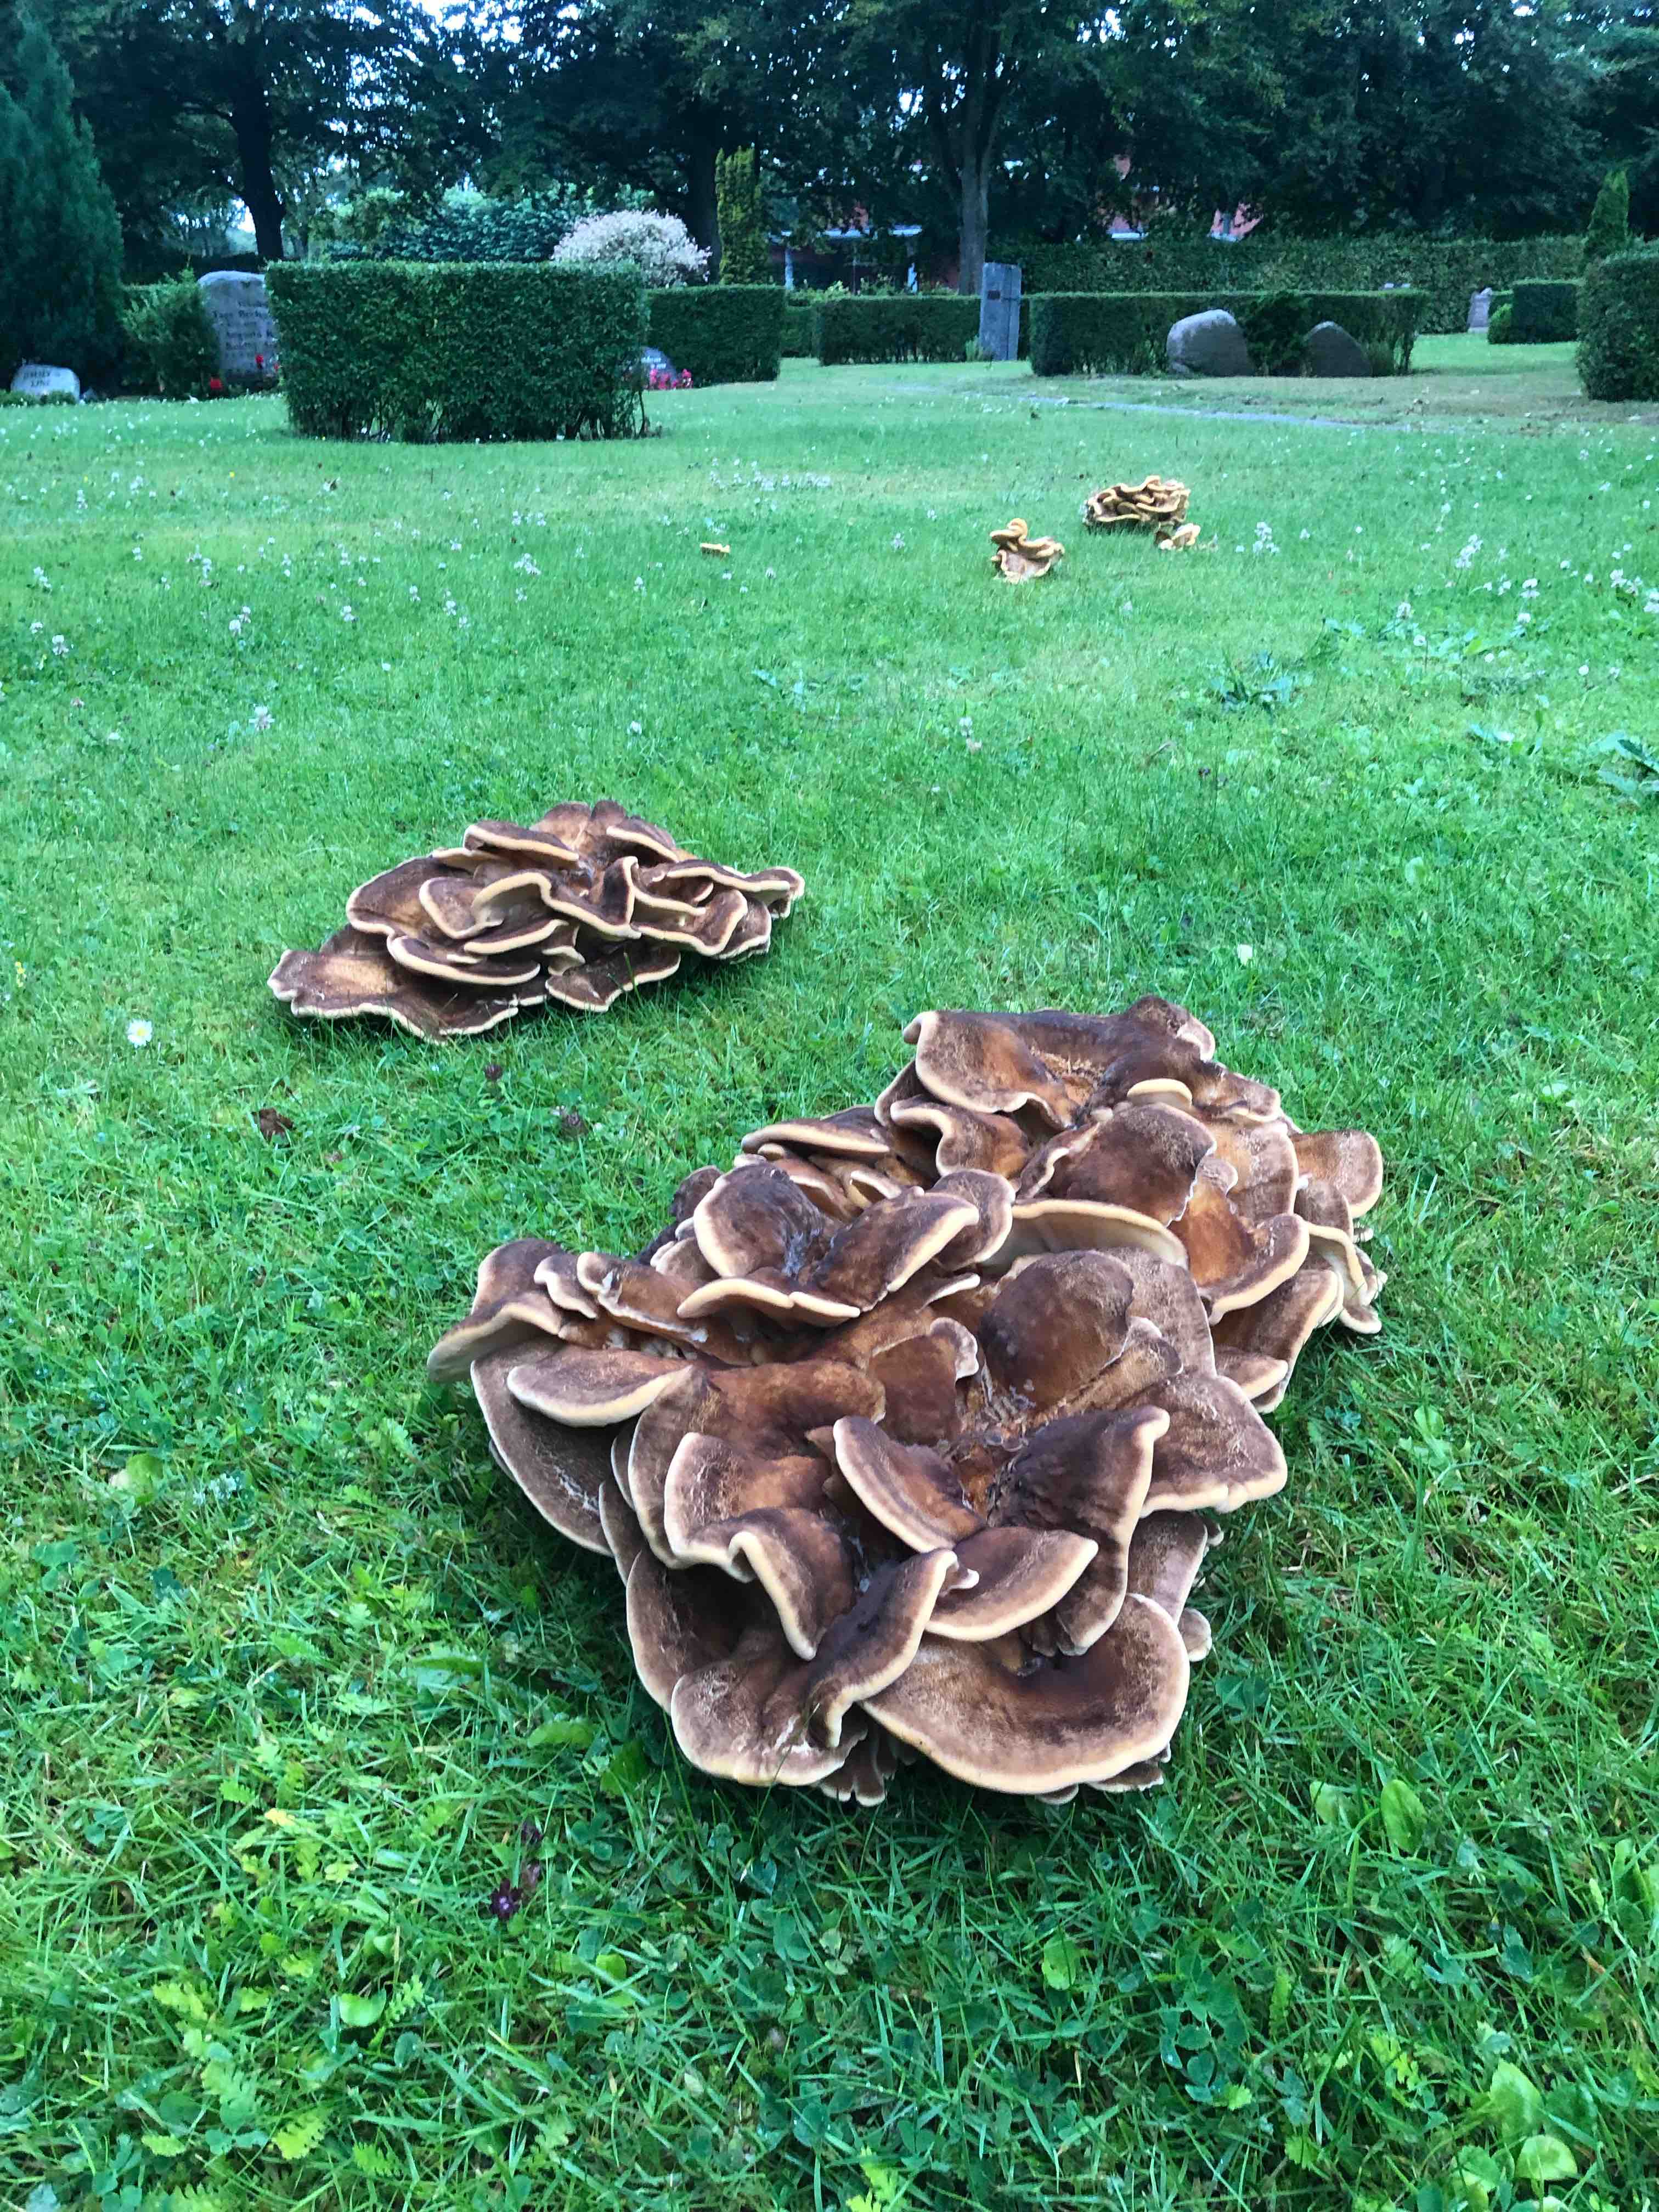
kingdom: Fungi
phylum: Basidiomycota
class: Agaricomycetes
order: Polyporales
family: Meripilaceae
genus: Meripilus
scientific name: Meripilus giganteus
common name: kæmpeporesvamp
